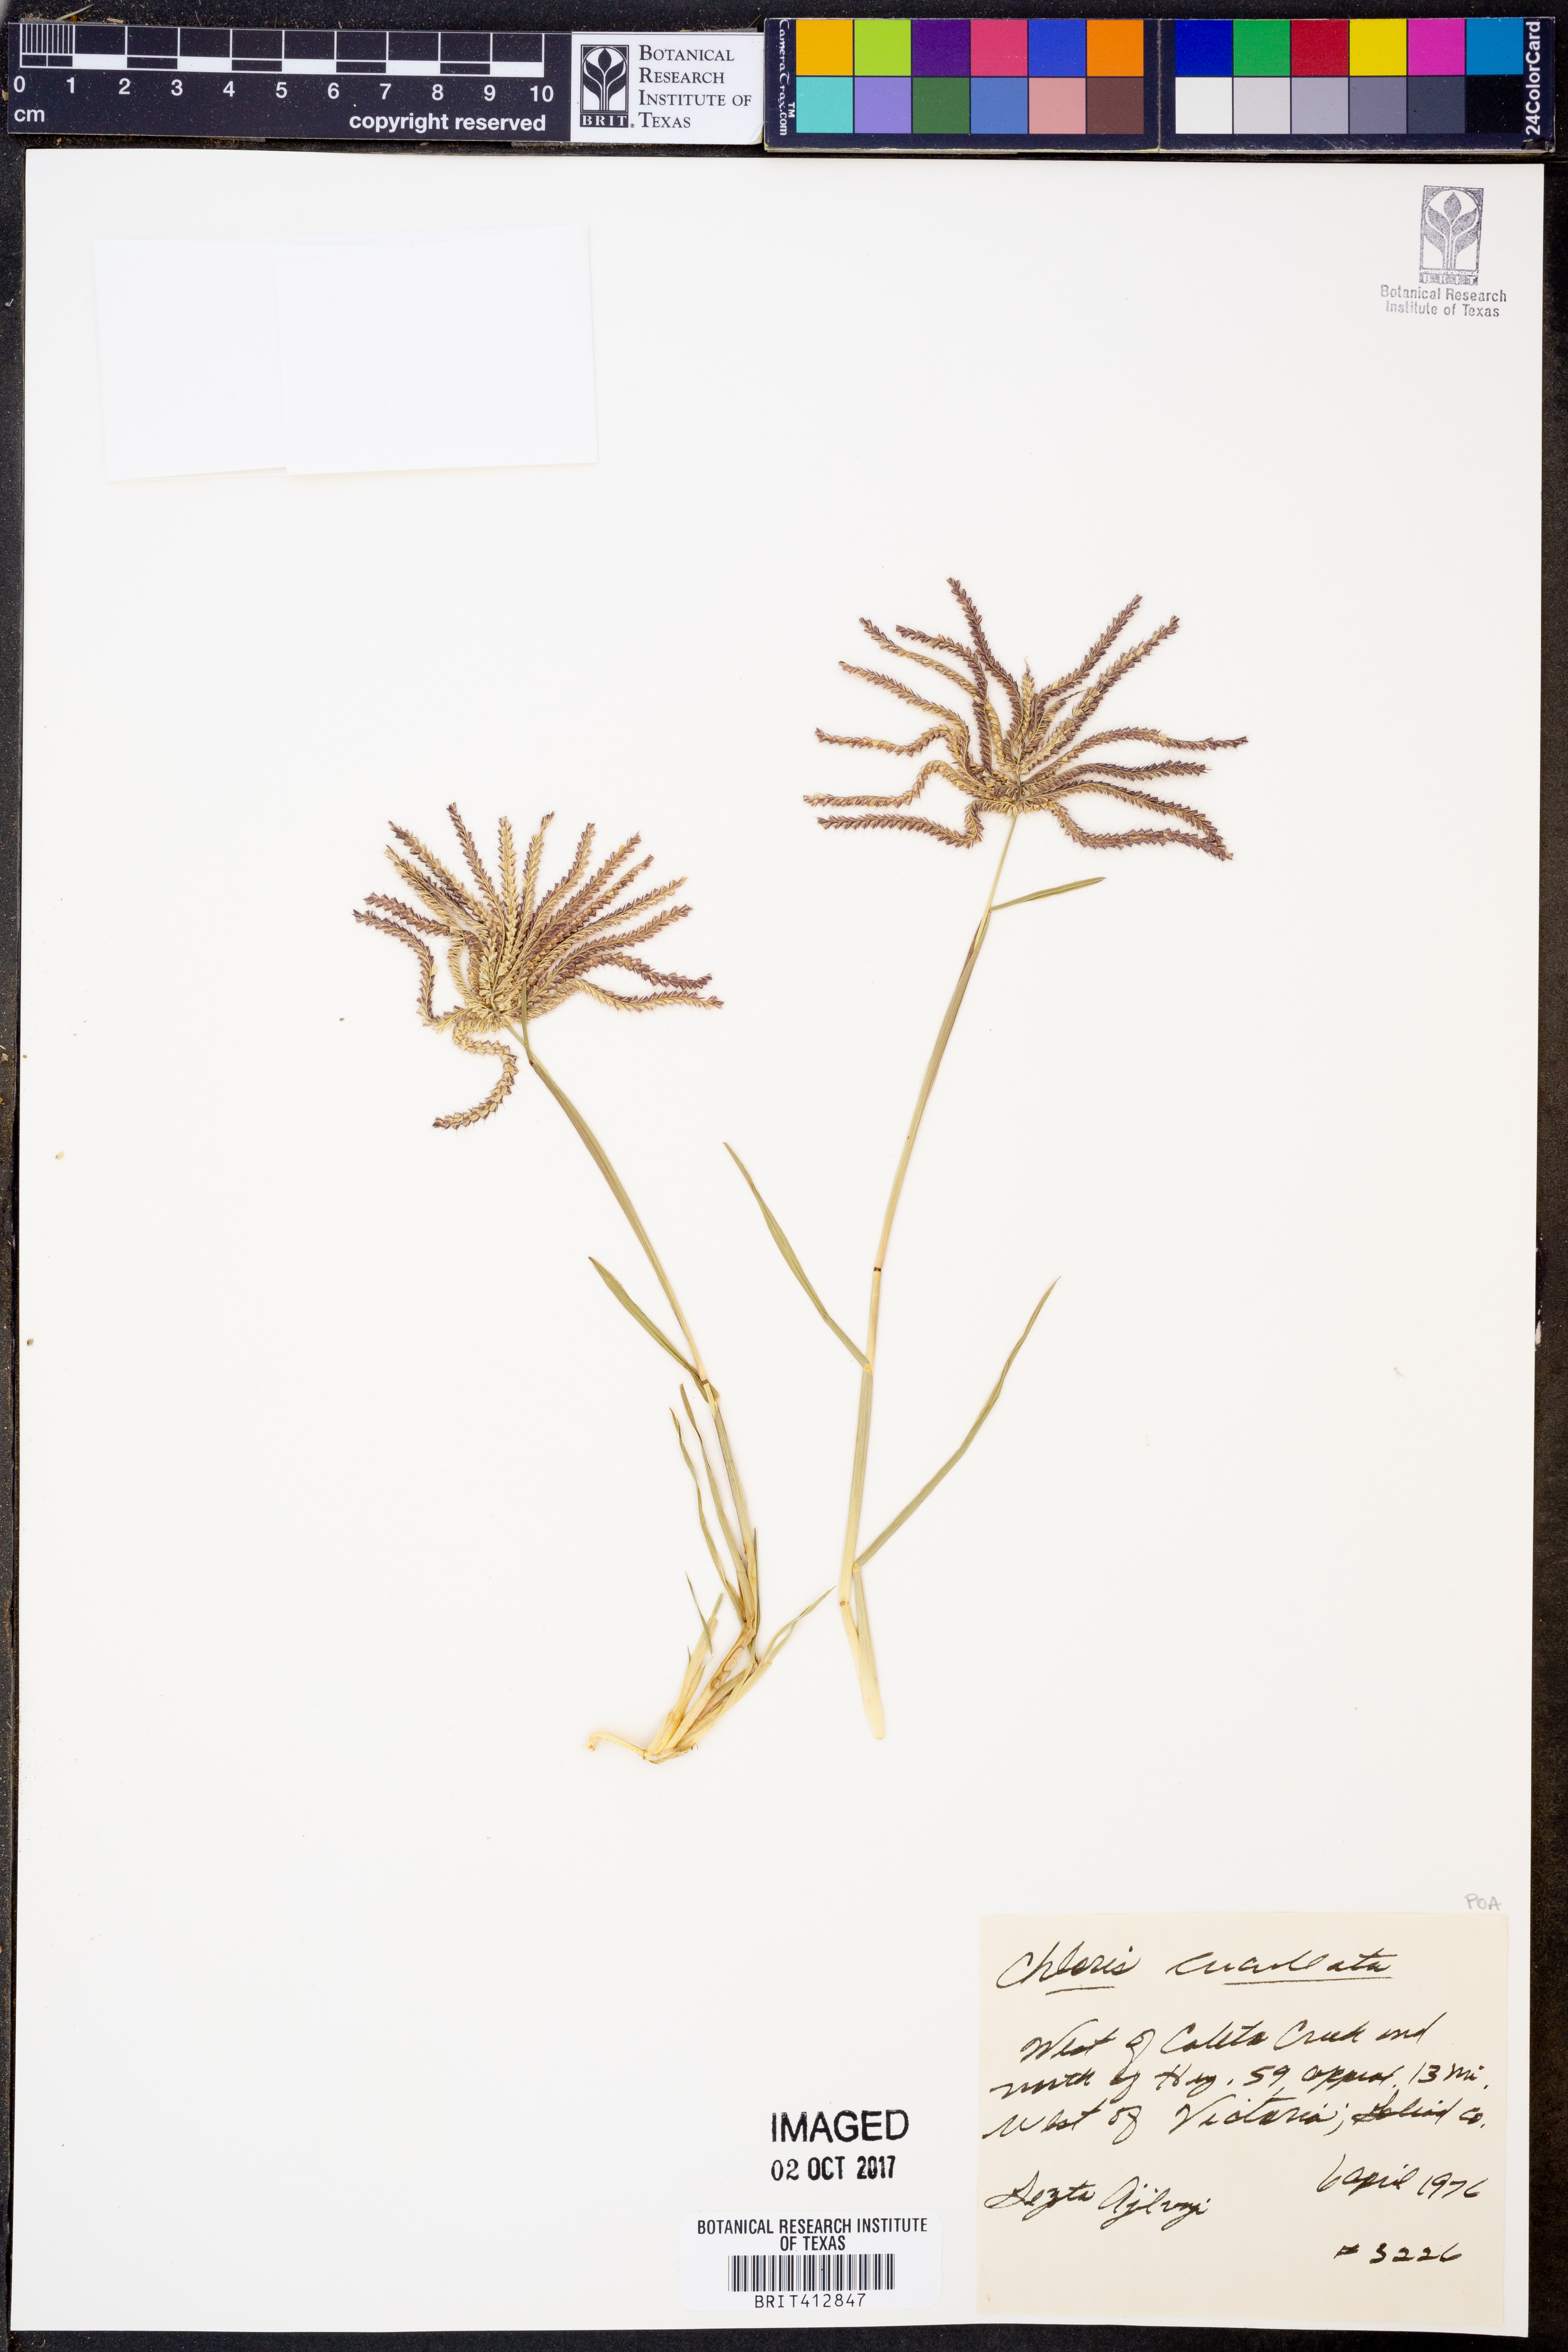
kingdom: Plantae
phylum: Tracheophyta
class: Liliopsida
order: Poales
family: Poaceae
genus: Chloris
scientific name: Chloris cucullata
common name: Hooded windmill grass
